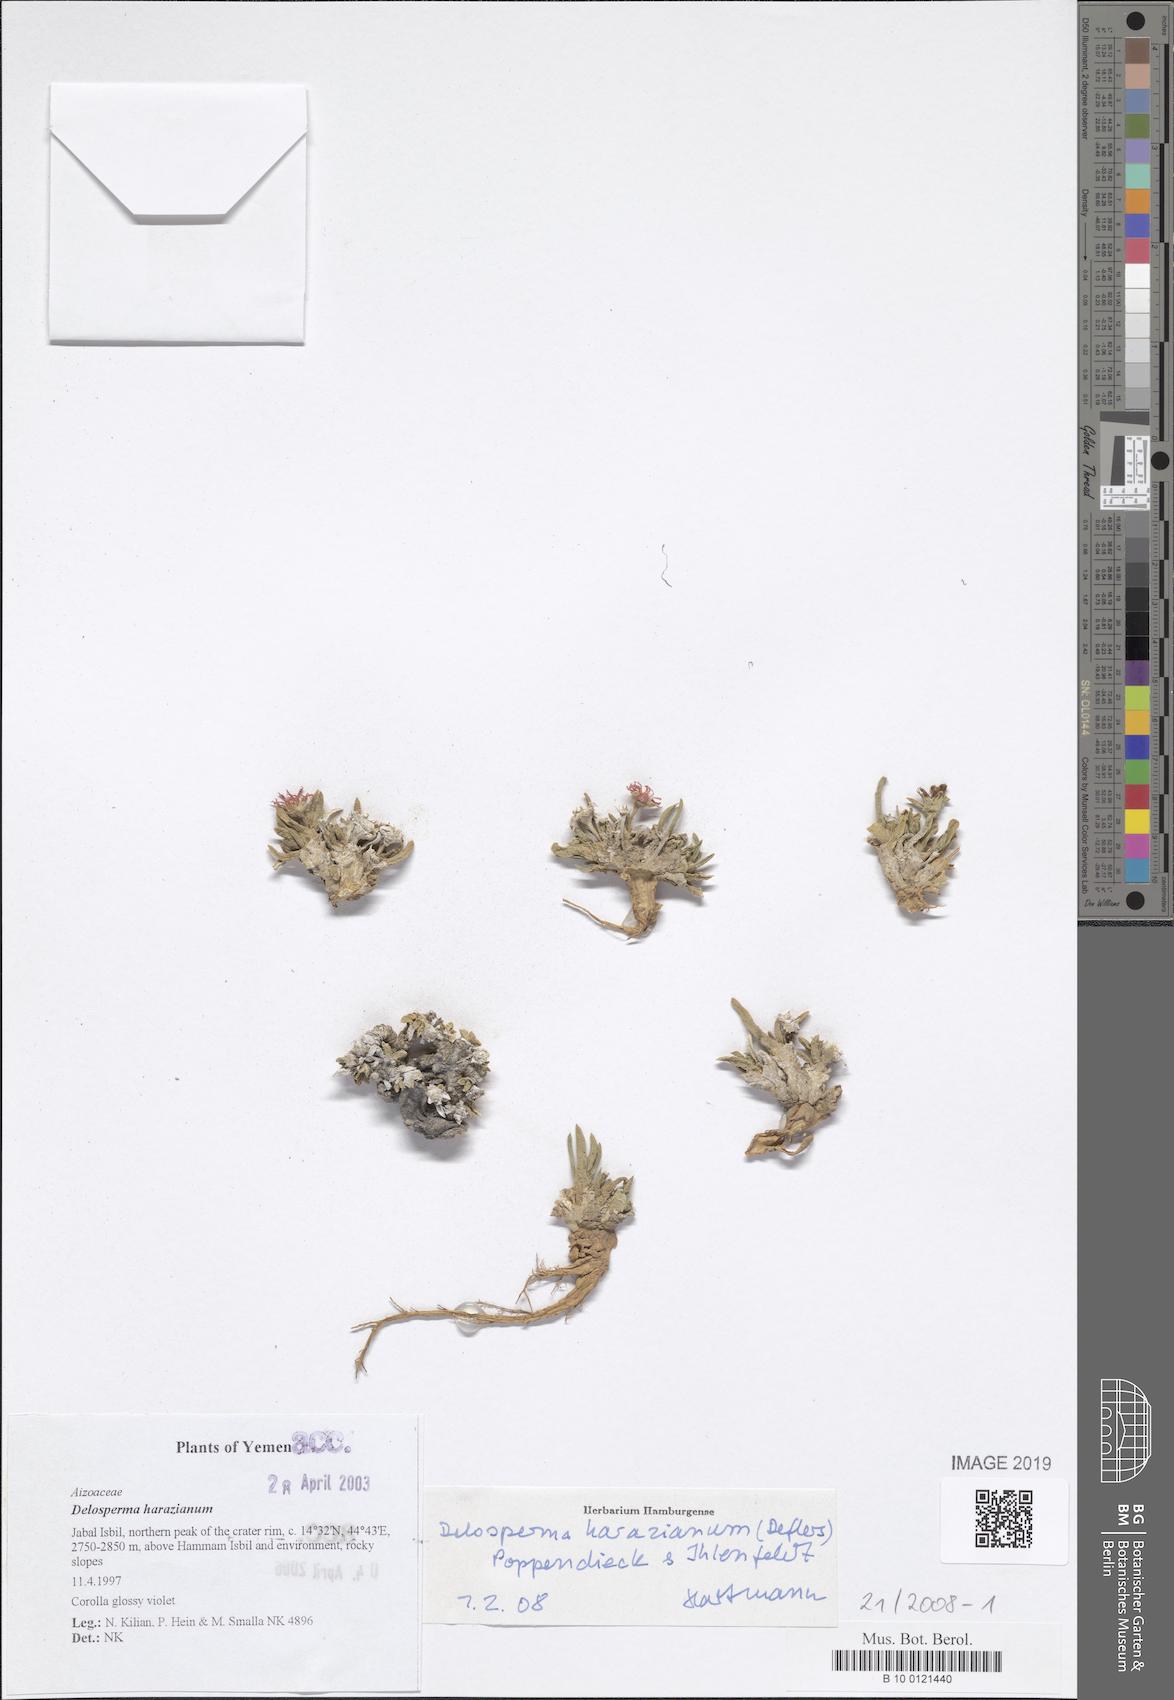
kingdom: Plantae
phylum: Tracheophyta
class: Magnoliopsida
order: Caryophyllales
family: Aizoaceae
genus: Delosperma
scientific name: Delosperma harazianum
